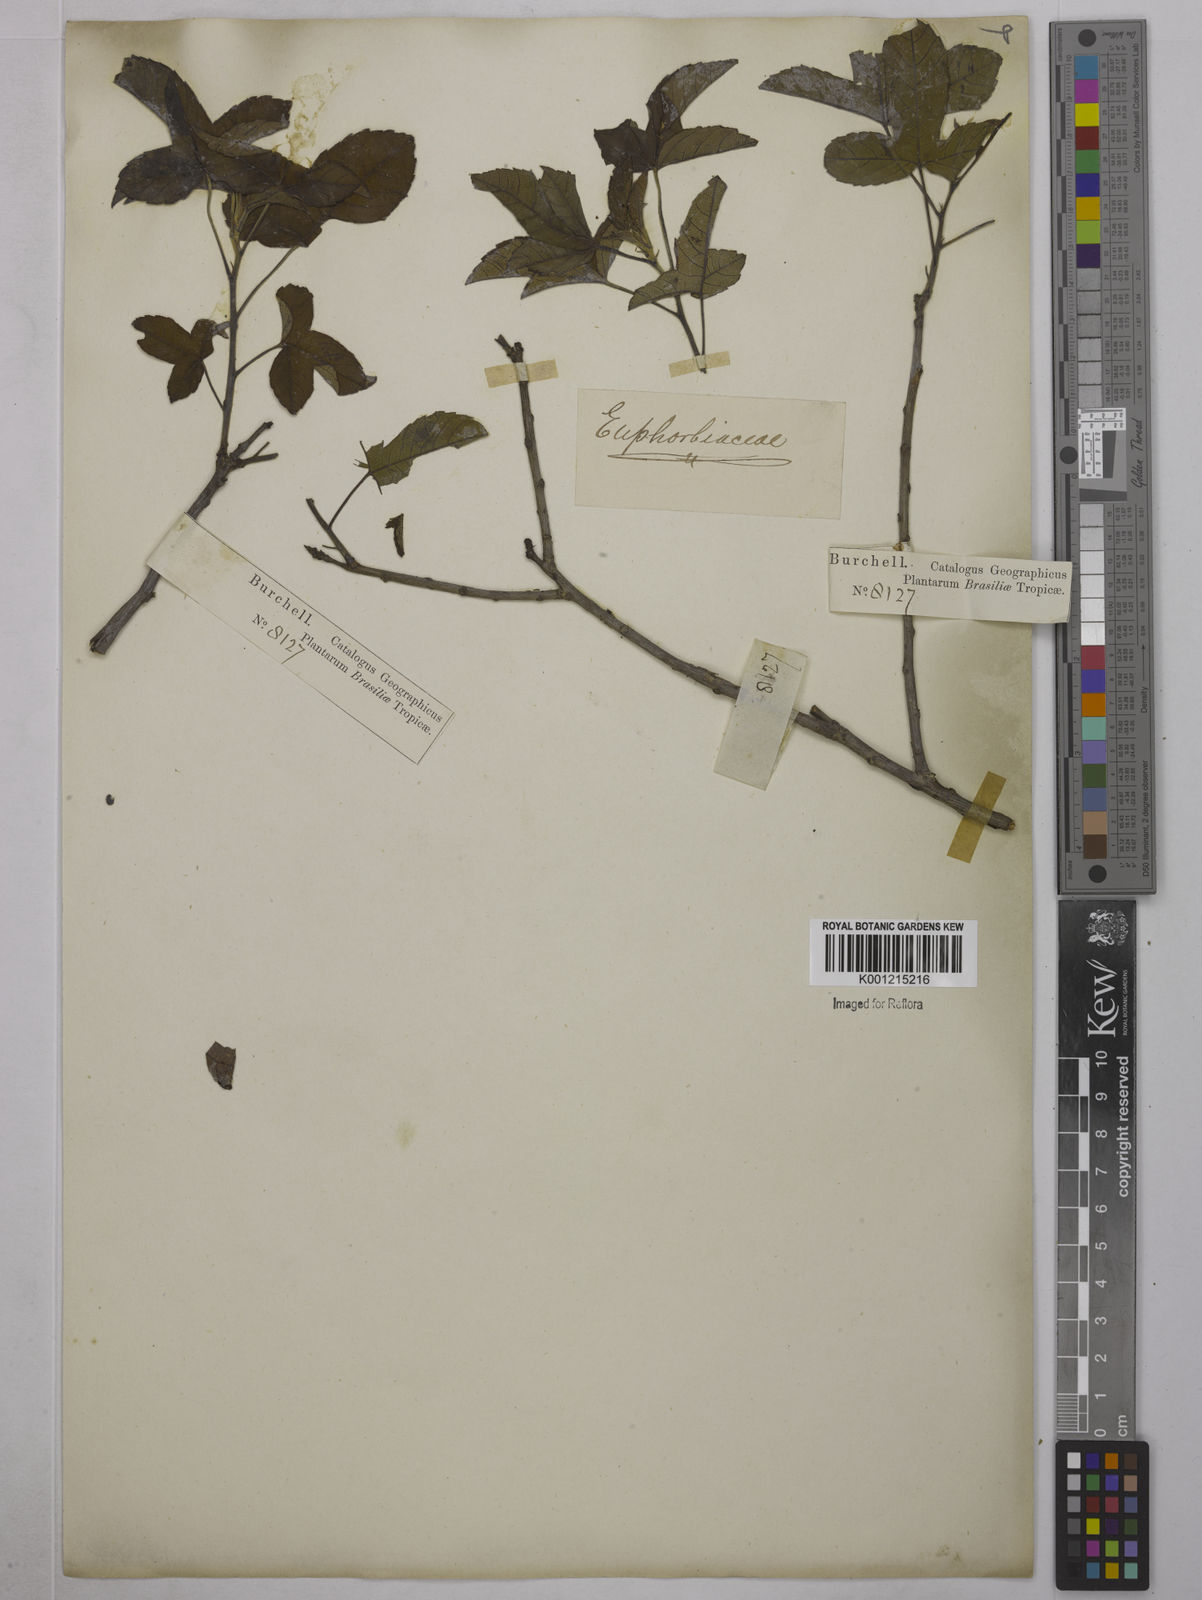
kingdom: Plantae
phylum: Tracheophyta
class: Magnoliopsida
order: Malpighiales
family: Euphorbiaceae
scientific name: Euphorbiaceae
